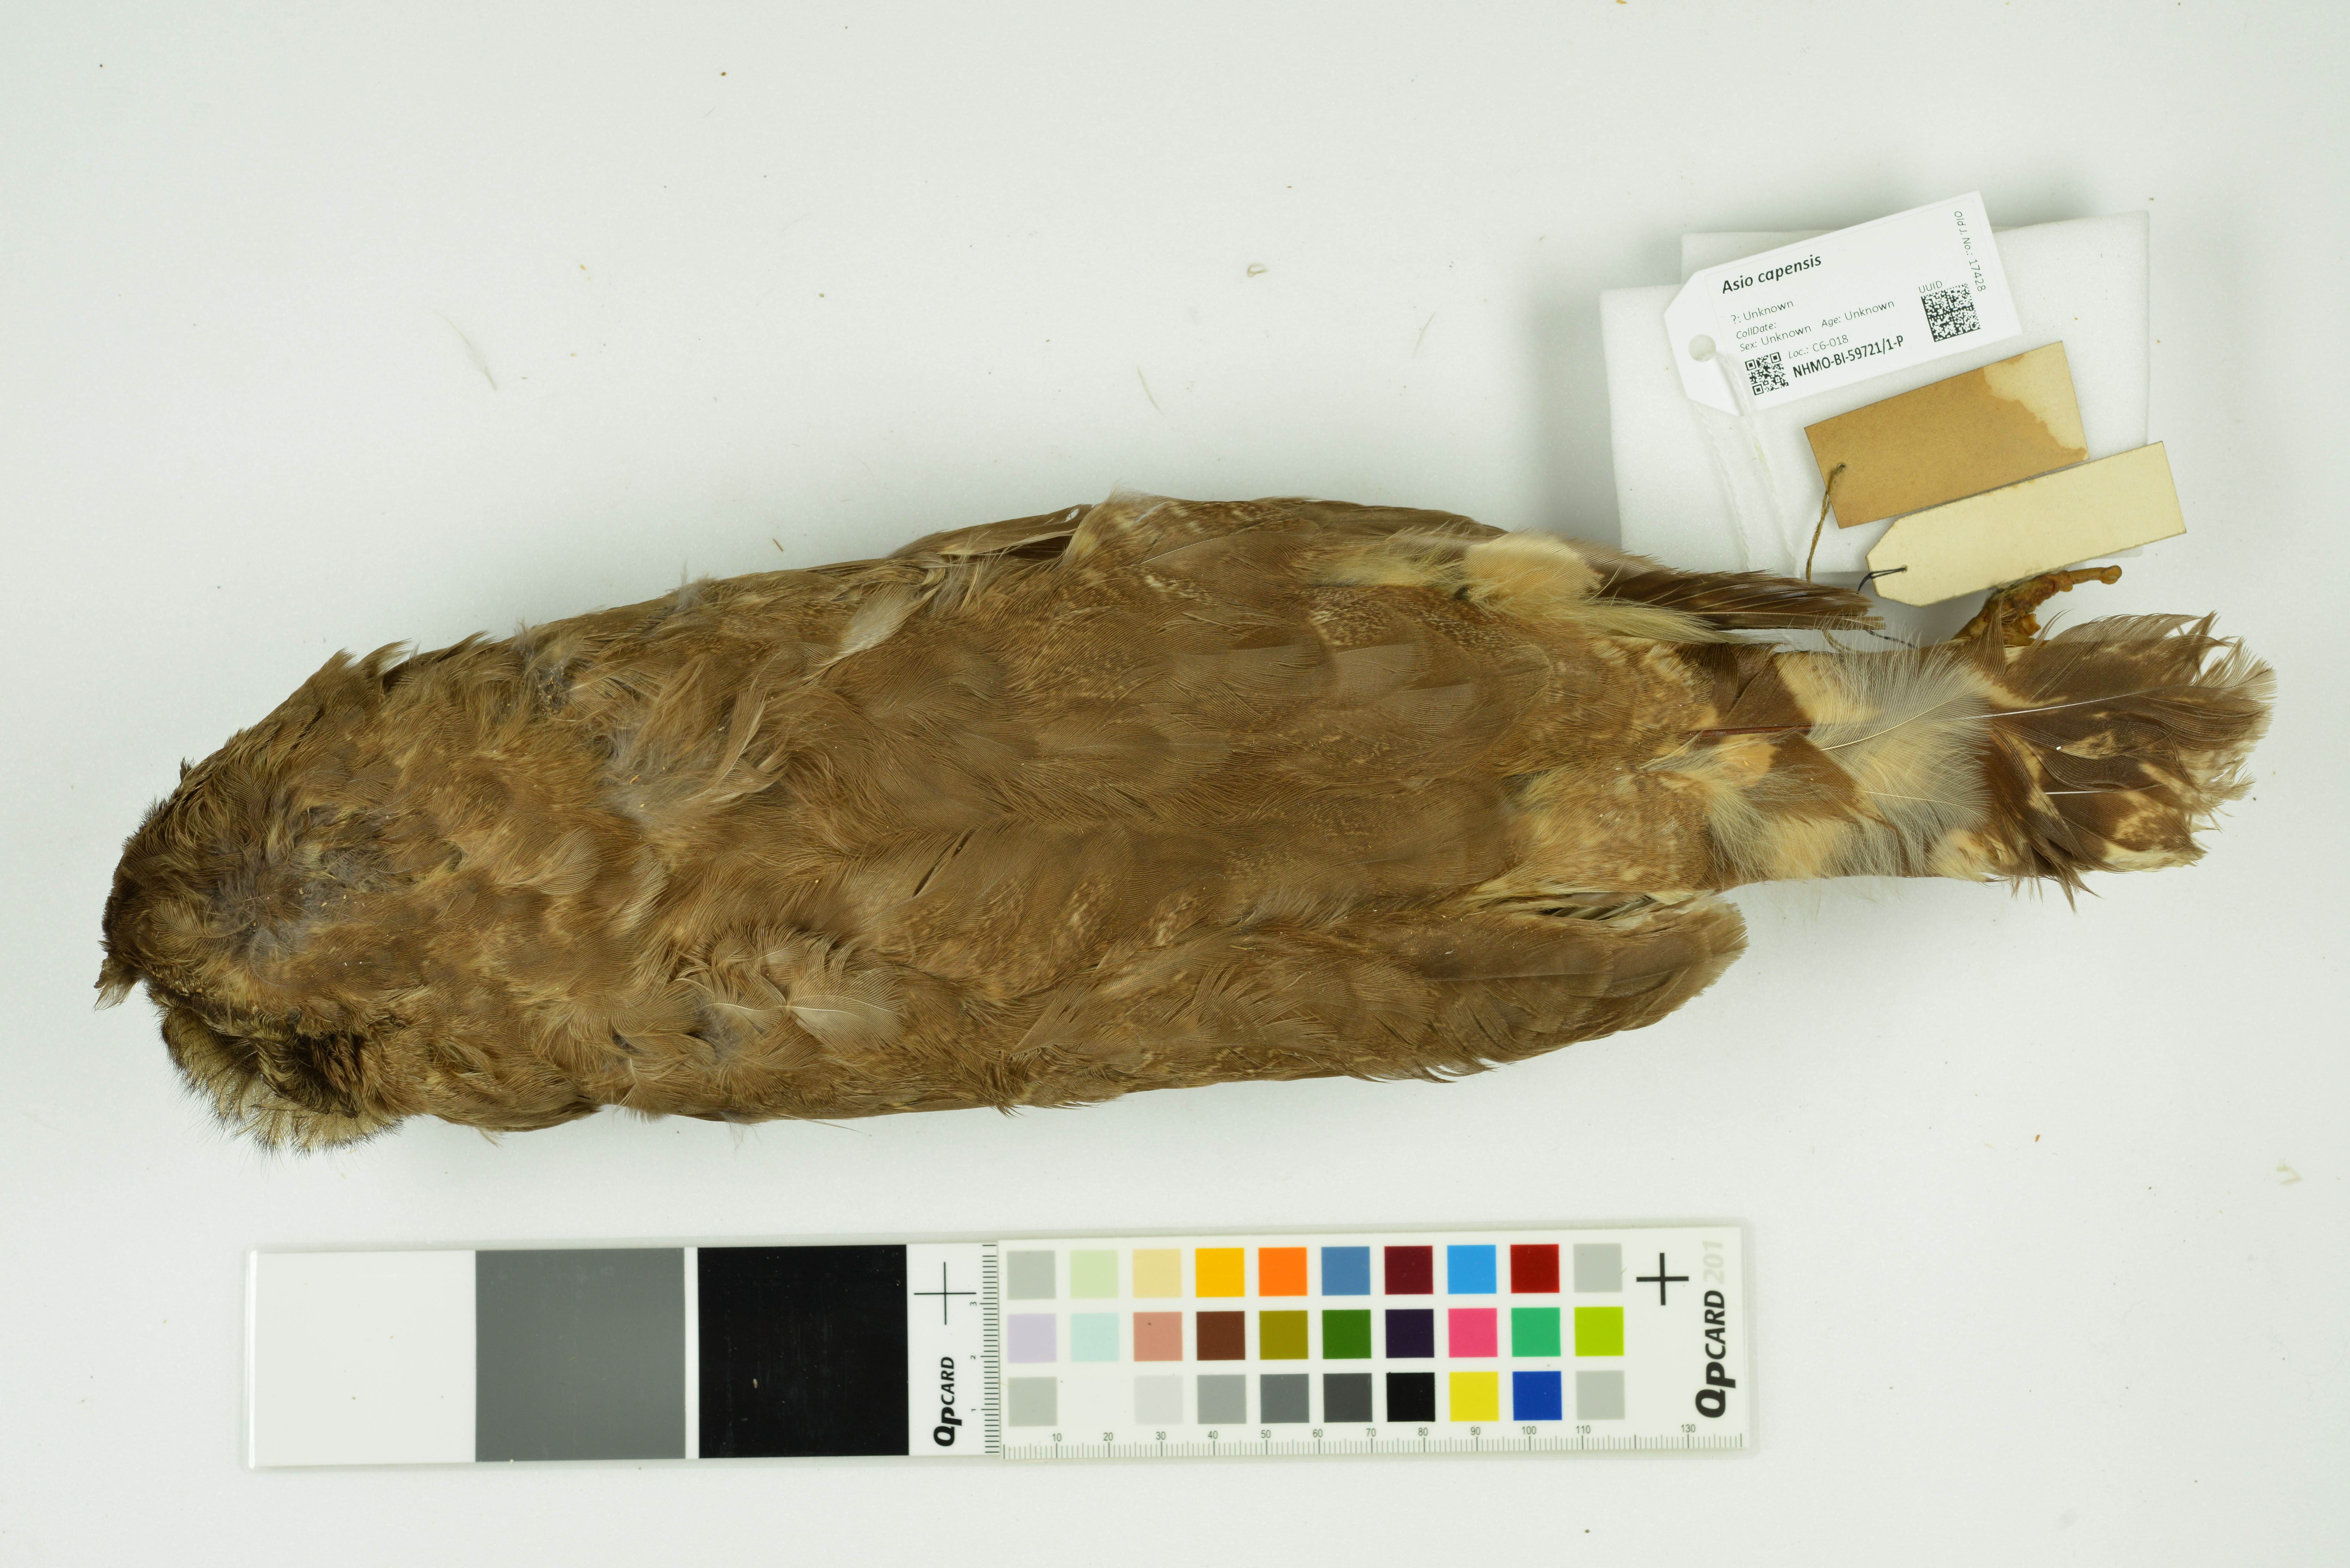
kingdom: Animalia
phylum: Chordata
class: Aves
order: Strigiformes
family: Strigidae
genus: Asio
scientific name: Asio capensis
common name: Marsh owl
